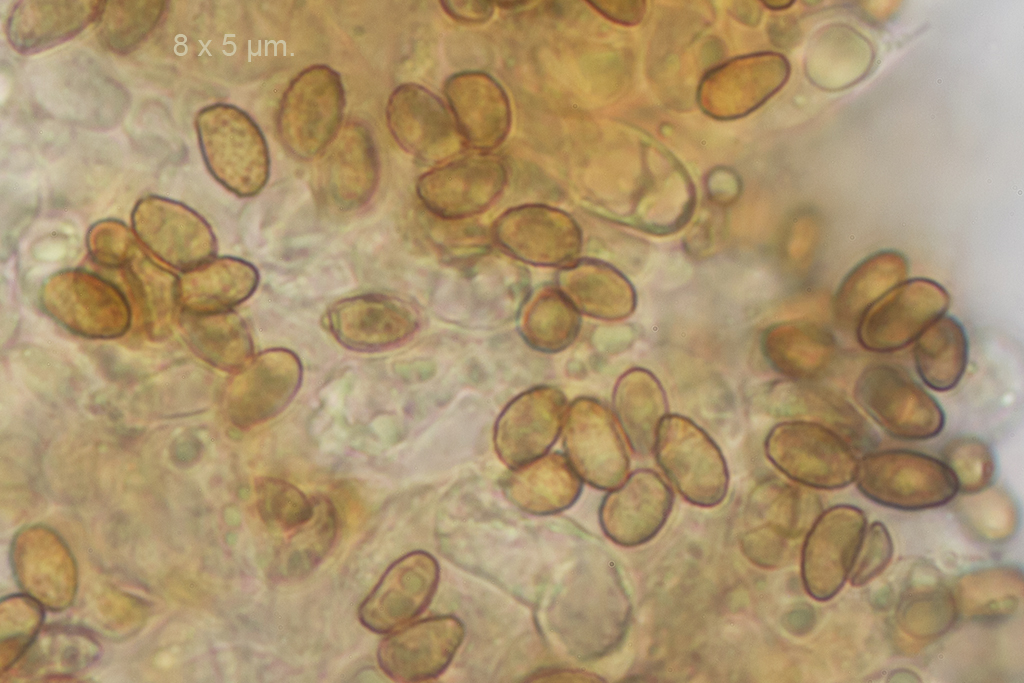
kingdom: Fungi
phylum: Basidiomycota
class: Agaricomycetes
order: Agaricales
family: Cortinariaceae
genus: Cortinarius
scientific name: Cortinarius neofallax
